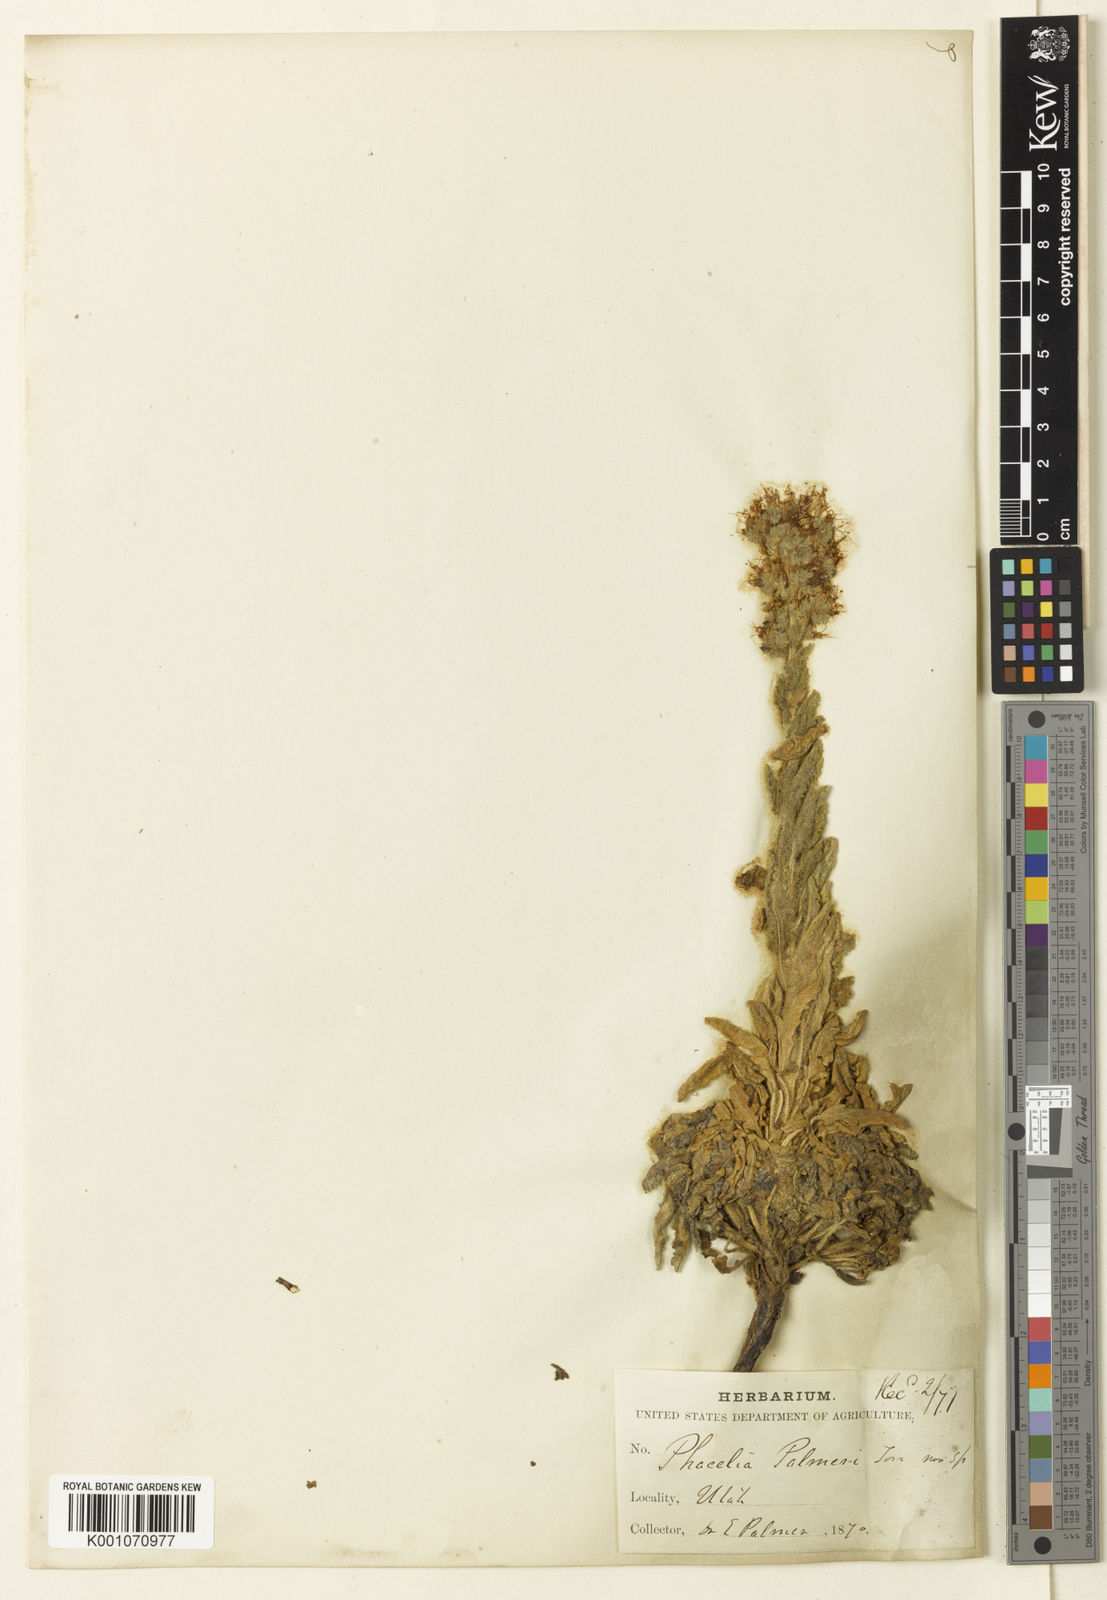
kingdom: Plantae
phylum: Tracheophyta
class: Magnoliopsida
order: Boraginales
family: Hydrophyllaceae
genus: Phacelia
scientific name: Phacelia
